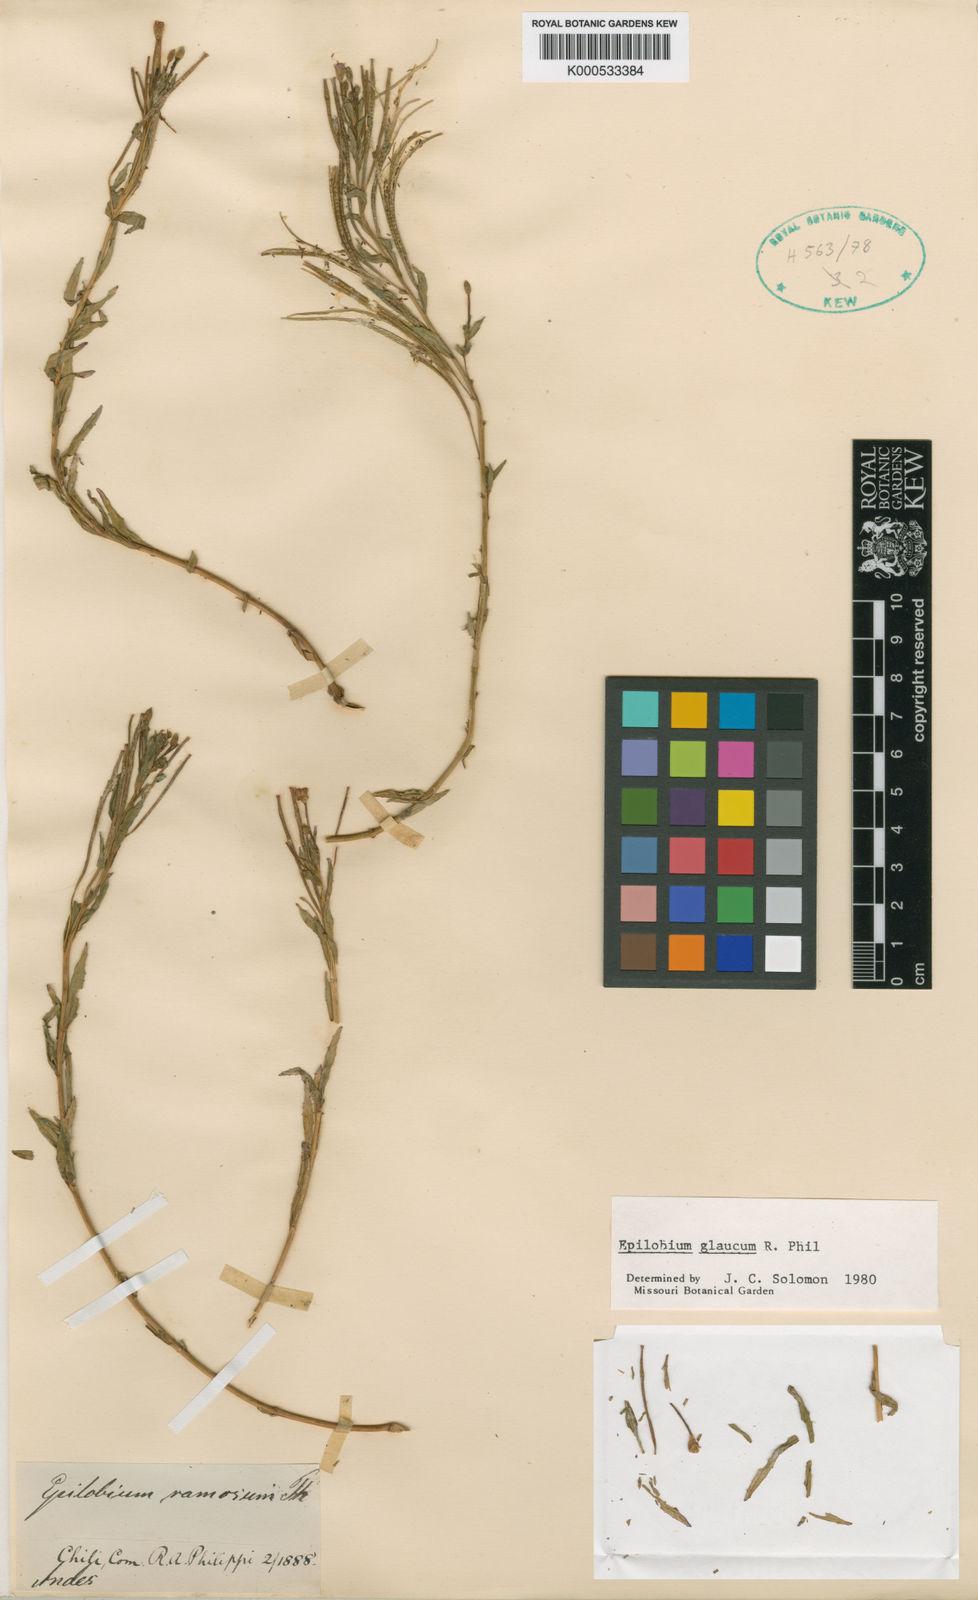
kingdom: Plantae
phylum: Tracheophyta
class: Magnoliopsida
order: Myrtales
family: Onagraceae
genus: Epilobium
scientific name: Epilobium glaucum
